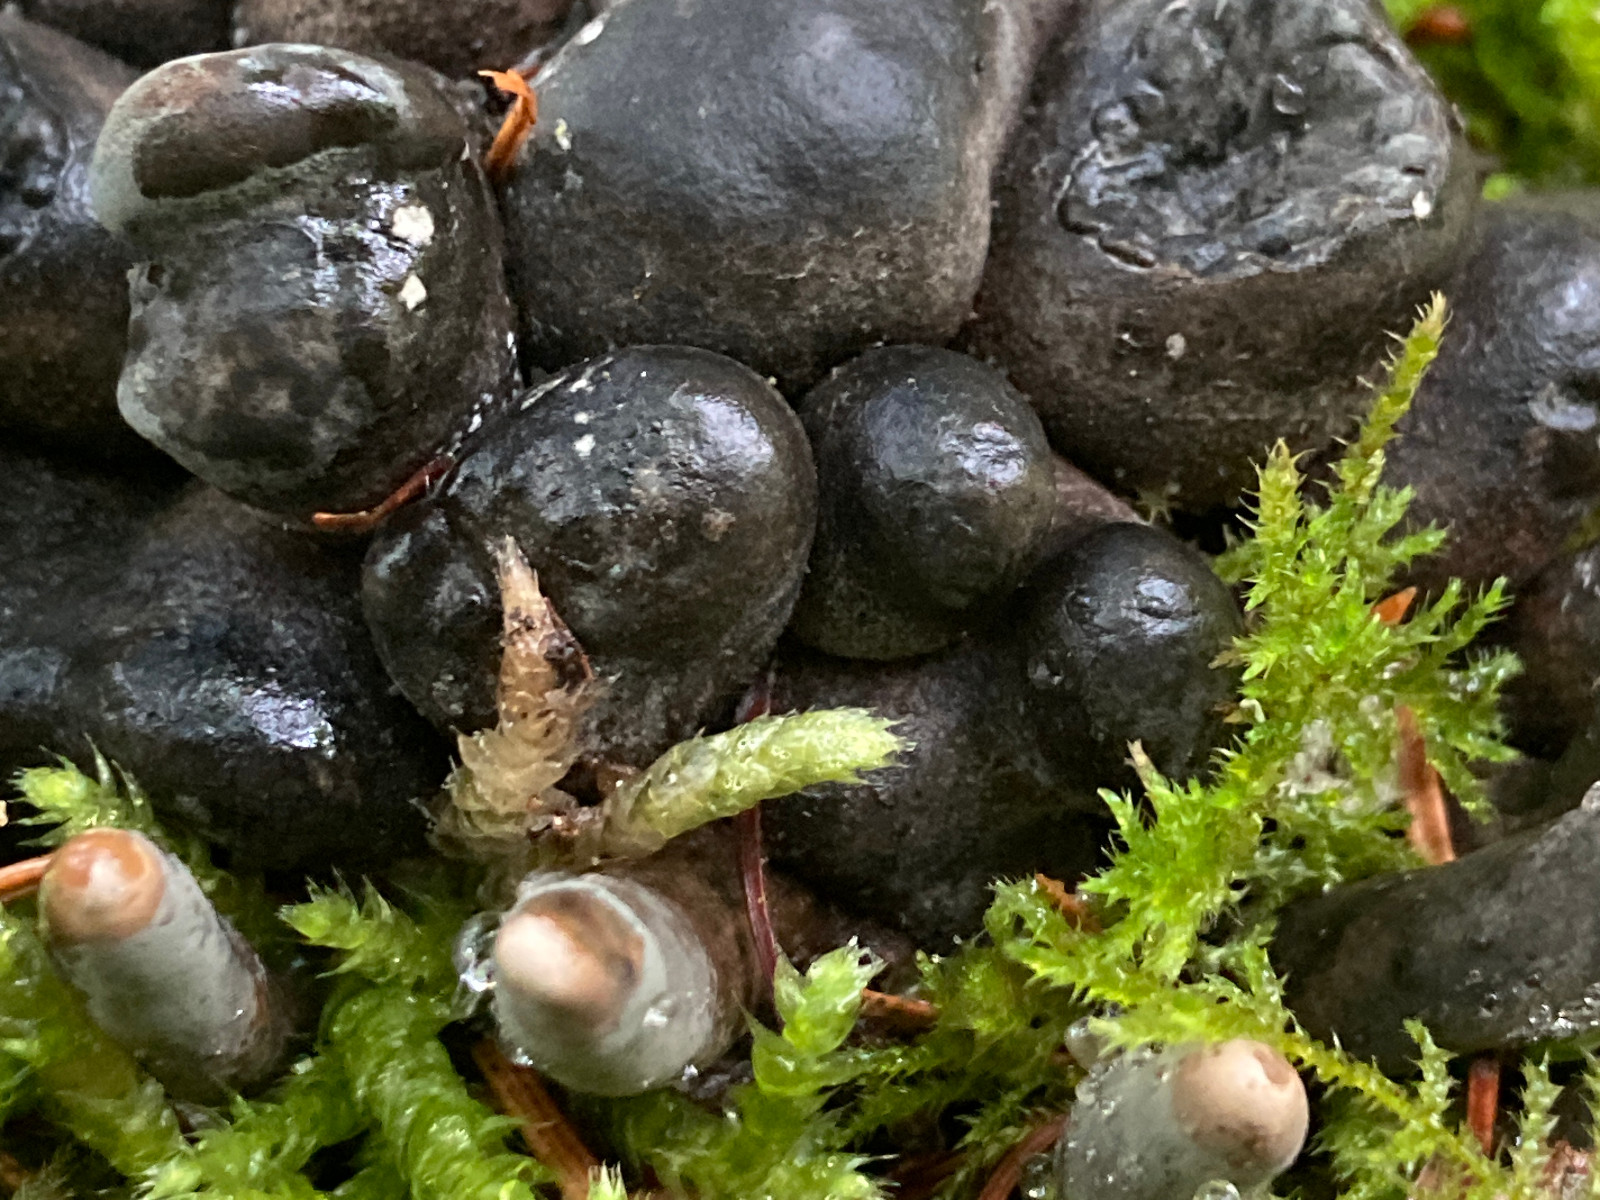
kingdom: Fungi
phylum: Ascomycota
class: Sordariomycetes
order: Xylariales
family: Xylariaceae
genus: Xylaria
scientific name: Xylaria polymorpha
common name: kølle-stødsvamp
